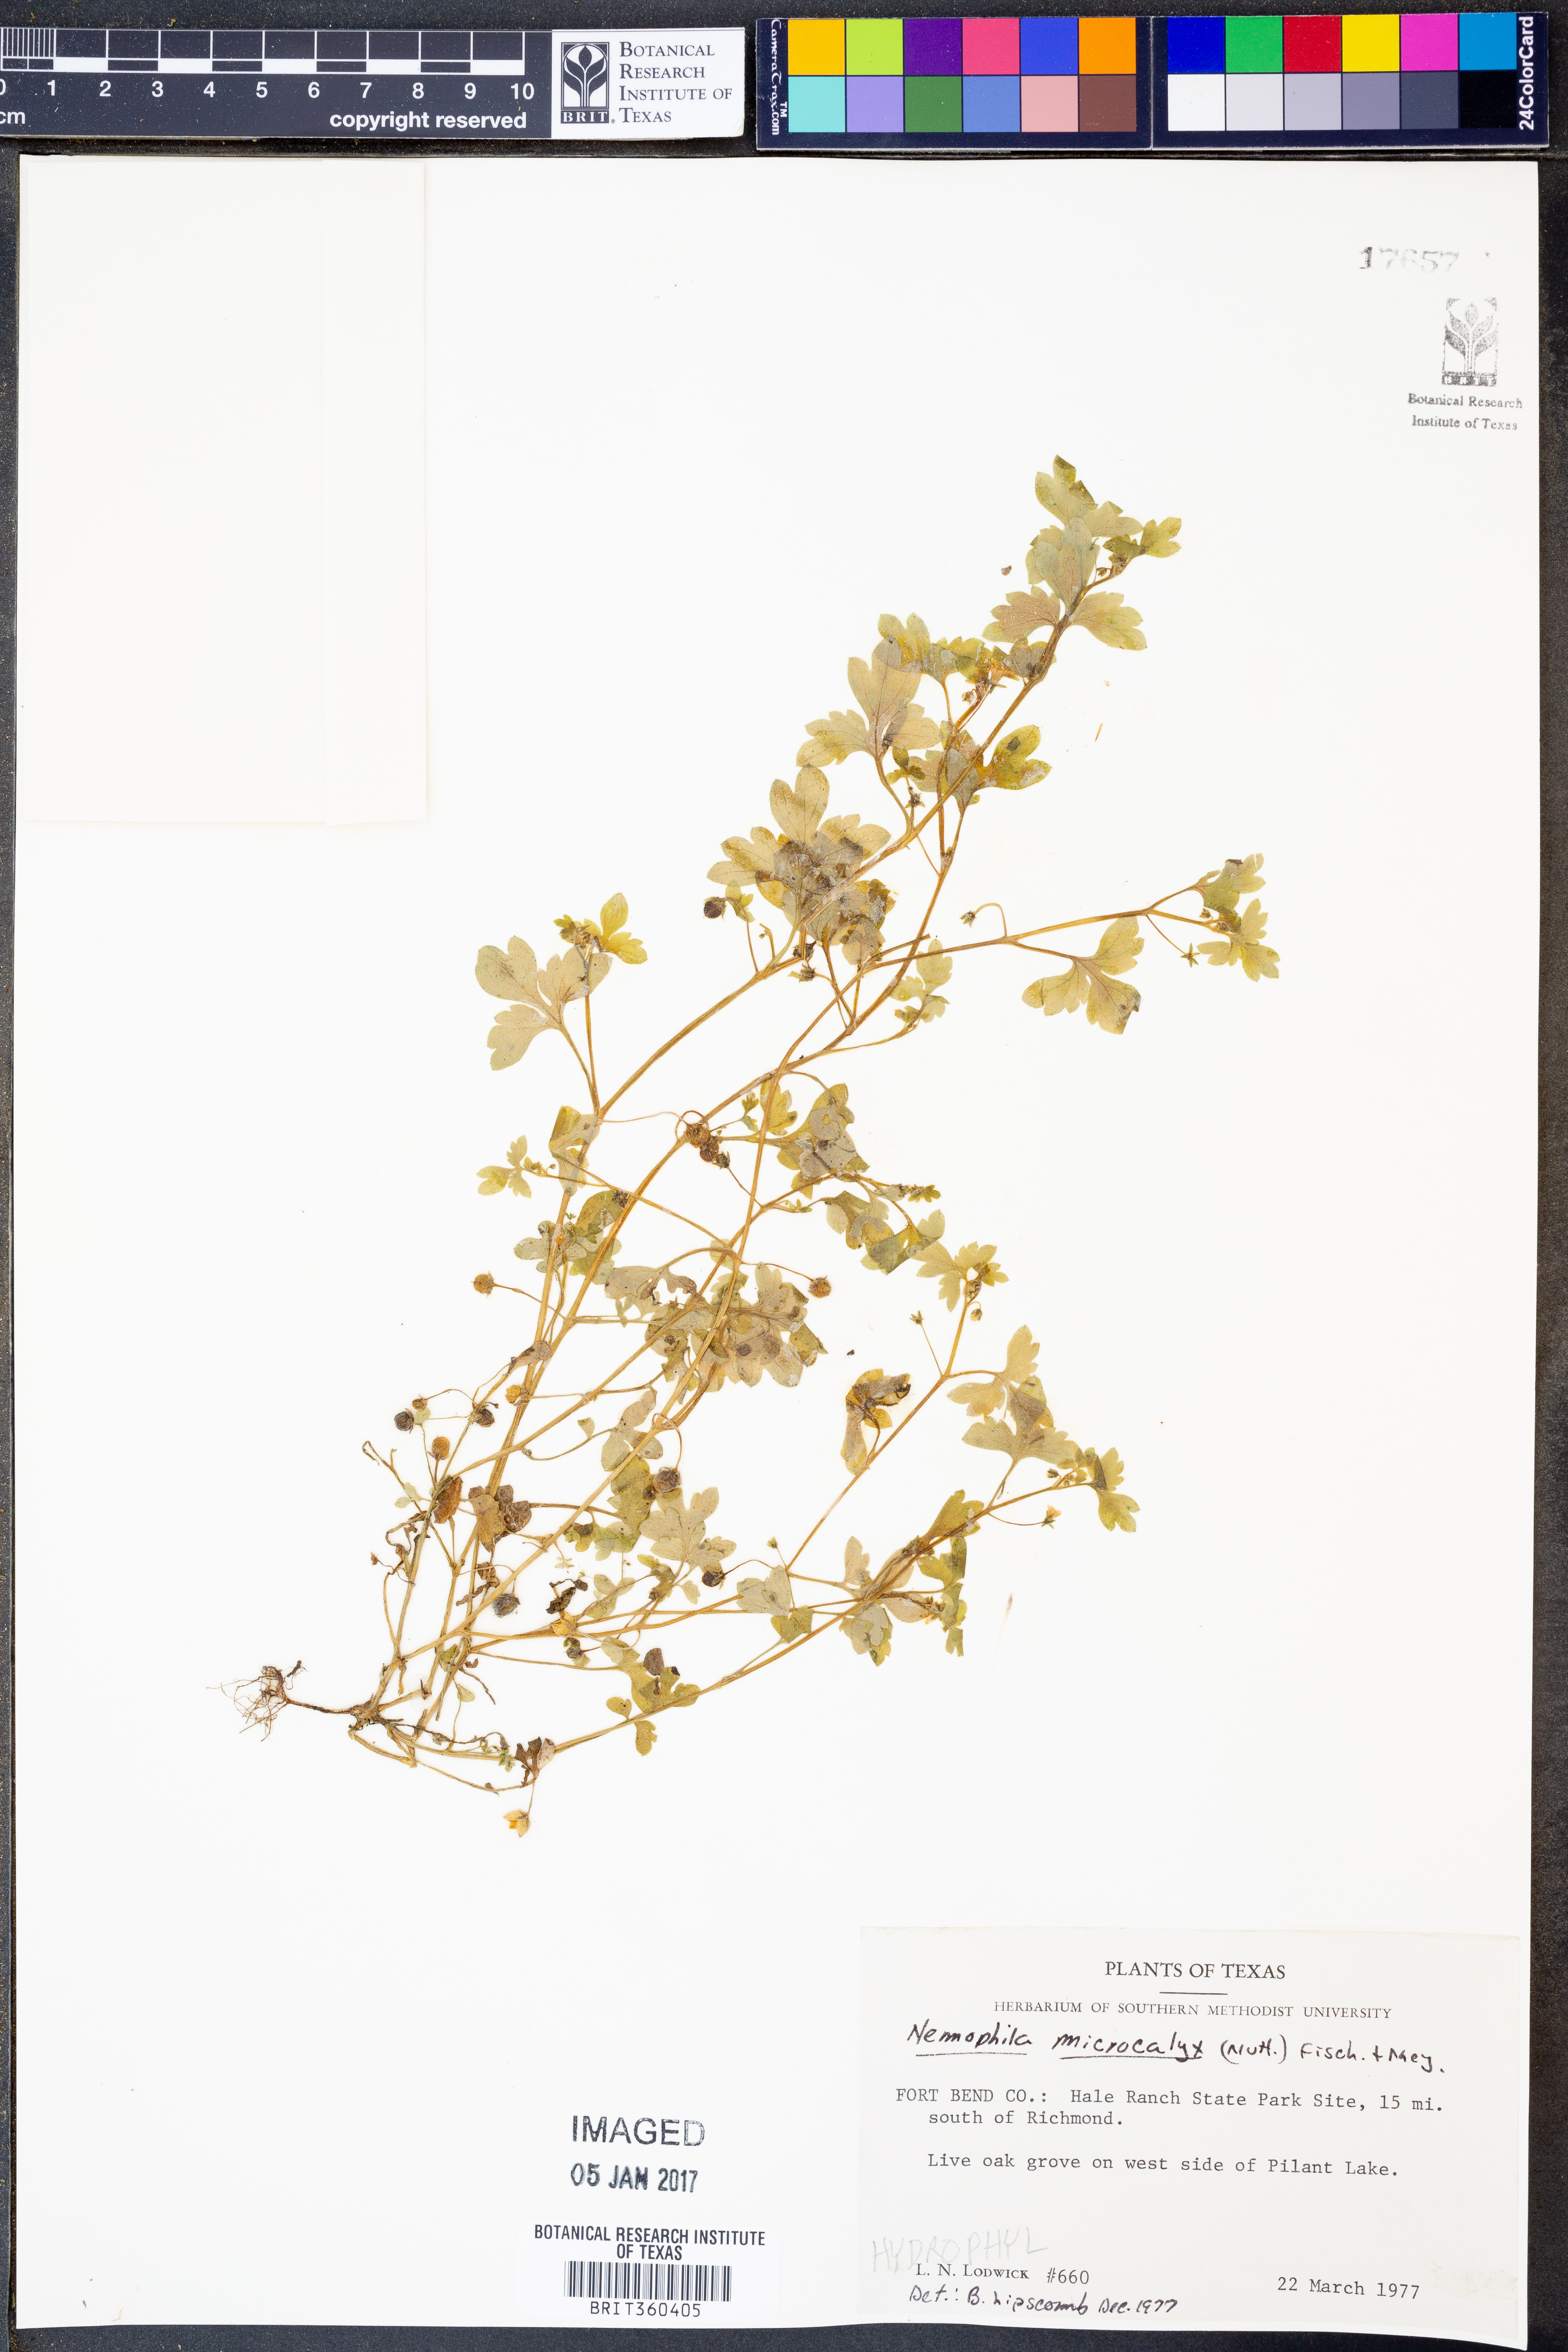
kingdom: Plantae
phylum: Tracheophyta
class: Magnoliopsida
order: Boraginales
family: Hydrophyllaceae
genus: Nemophila
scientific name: Nemophila aphylla
